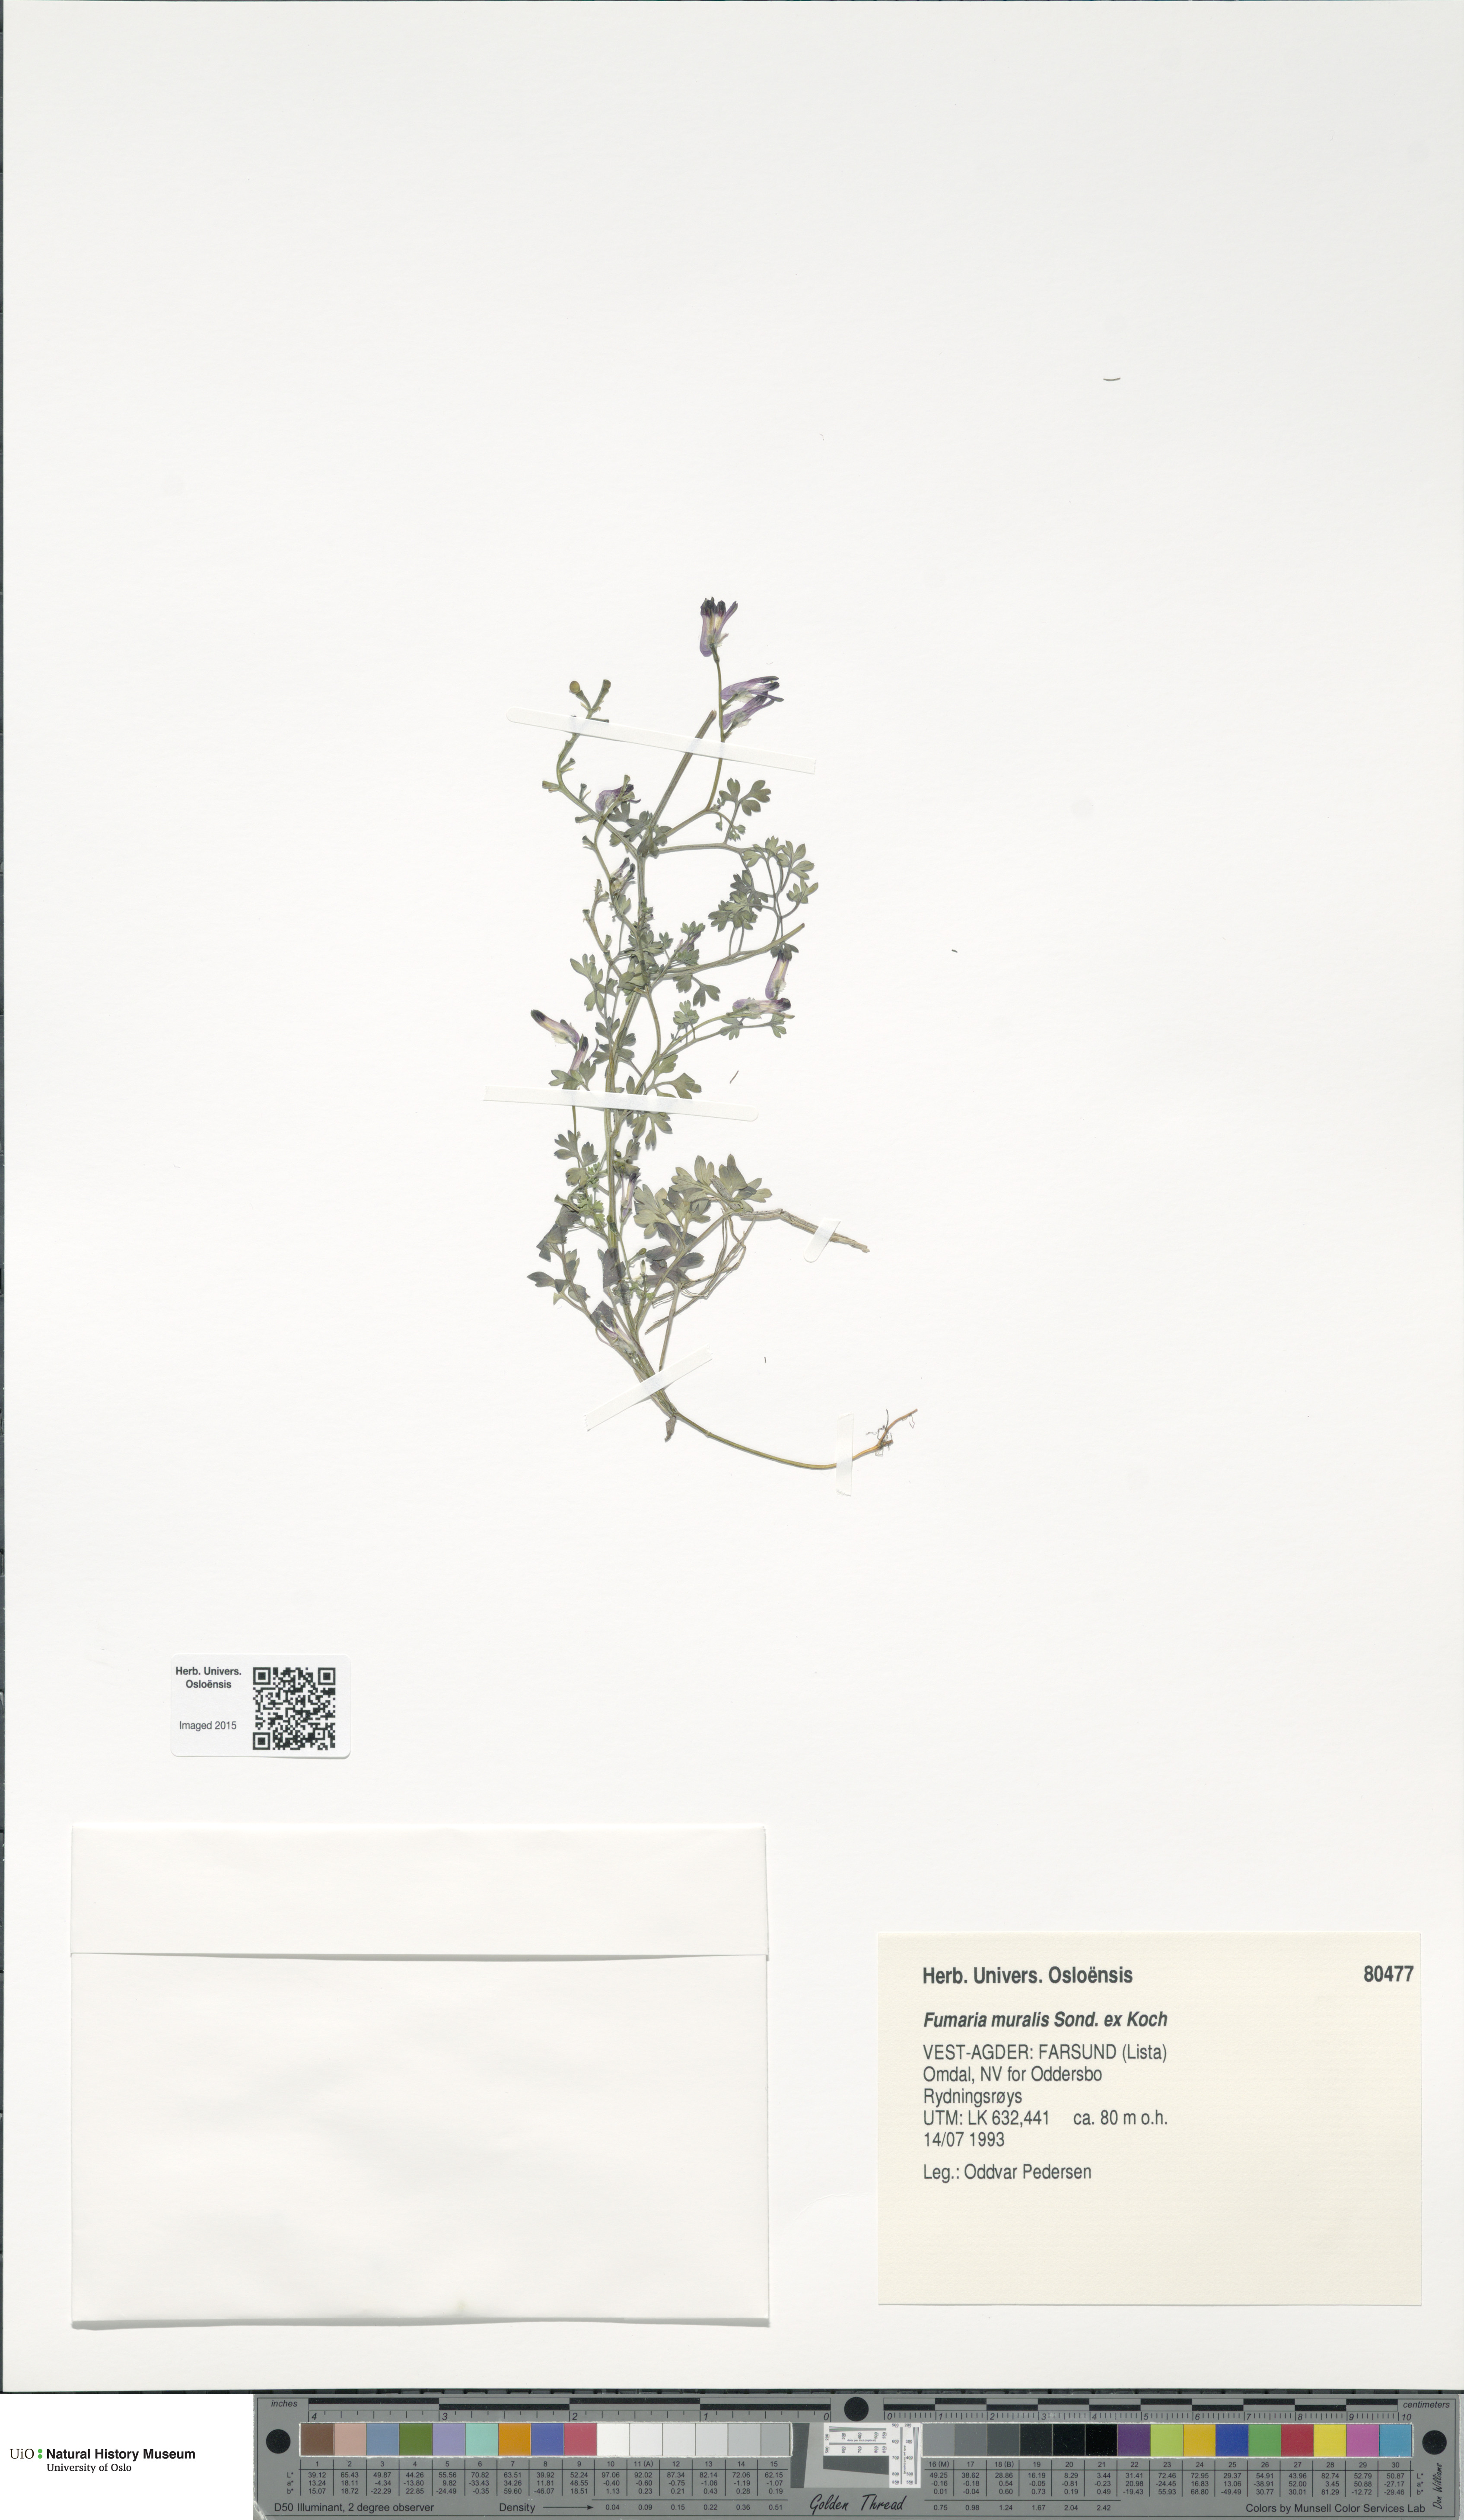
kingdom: Plantae
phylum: Tracheophyta
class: Magnoliopsida
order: Ranunculales
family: Papaveraceae
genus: Fumaria
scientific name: Fumaria muralis
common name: Common ramping-fumitory
